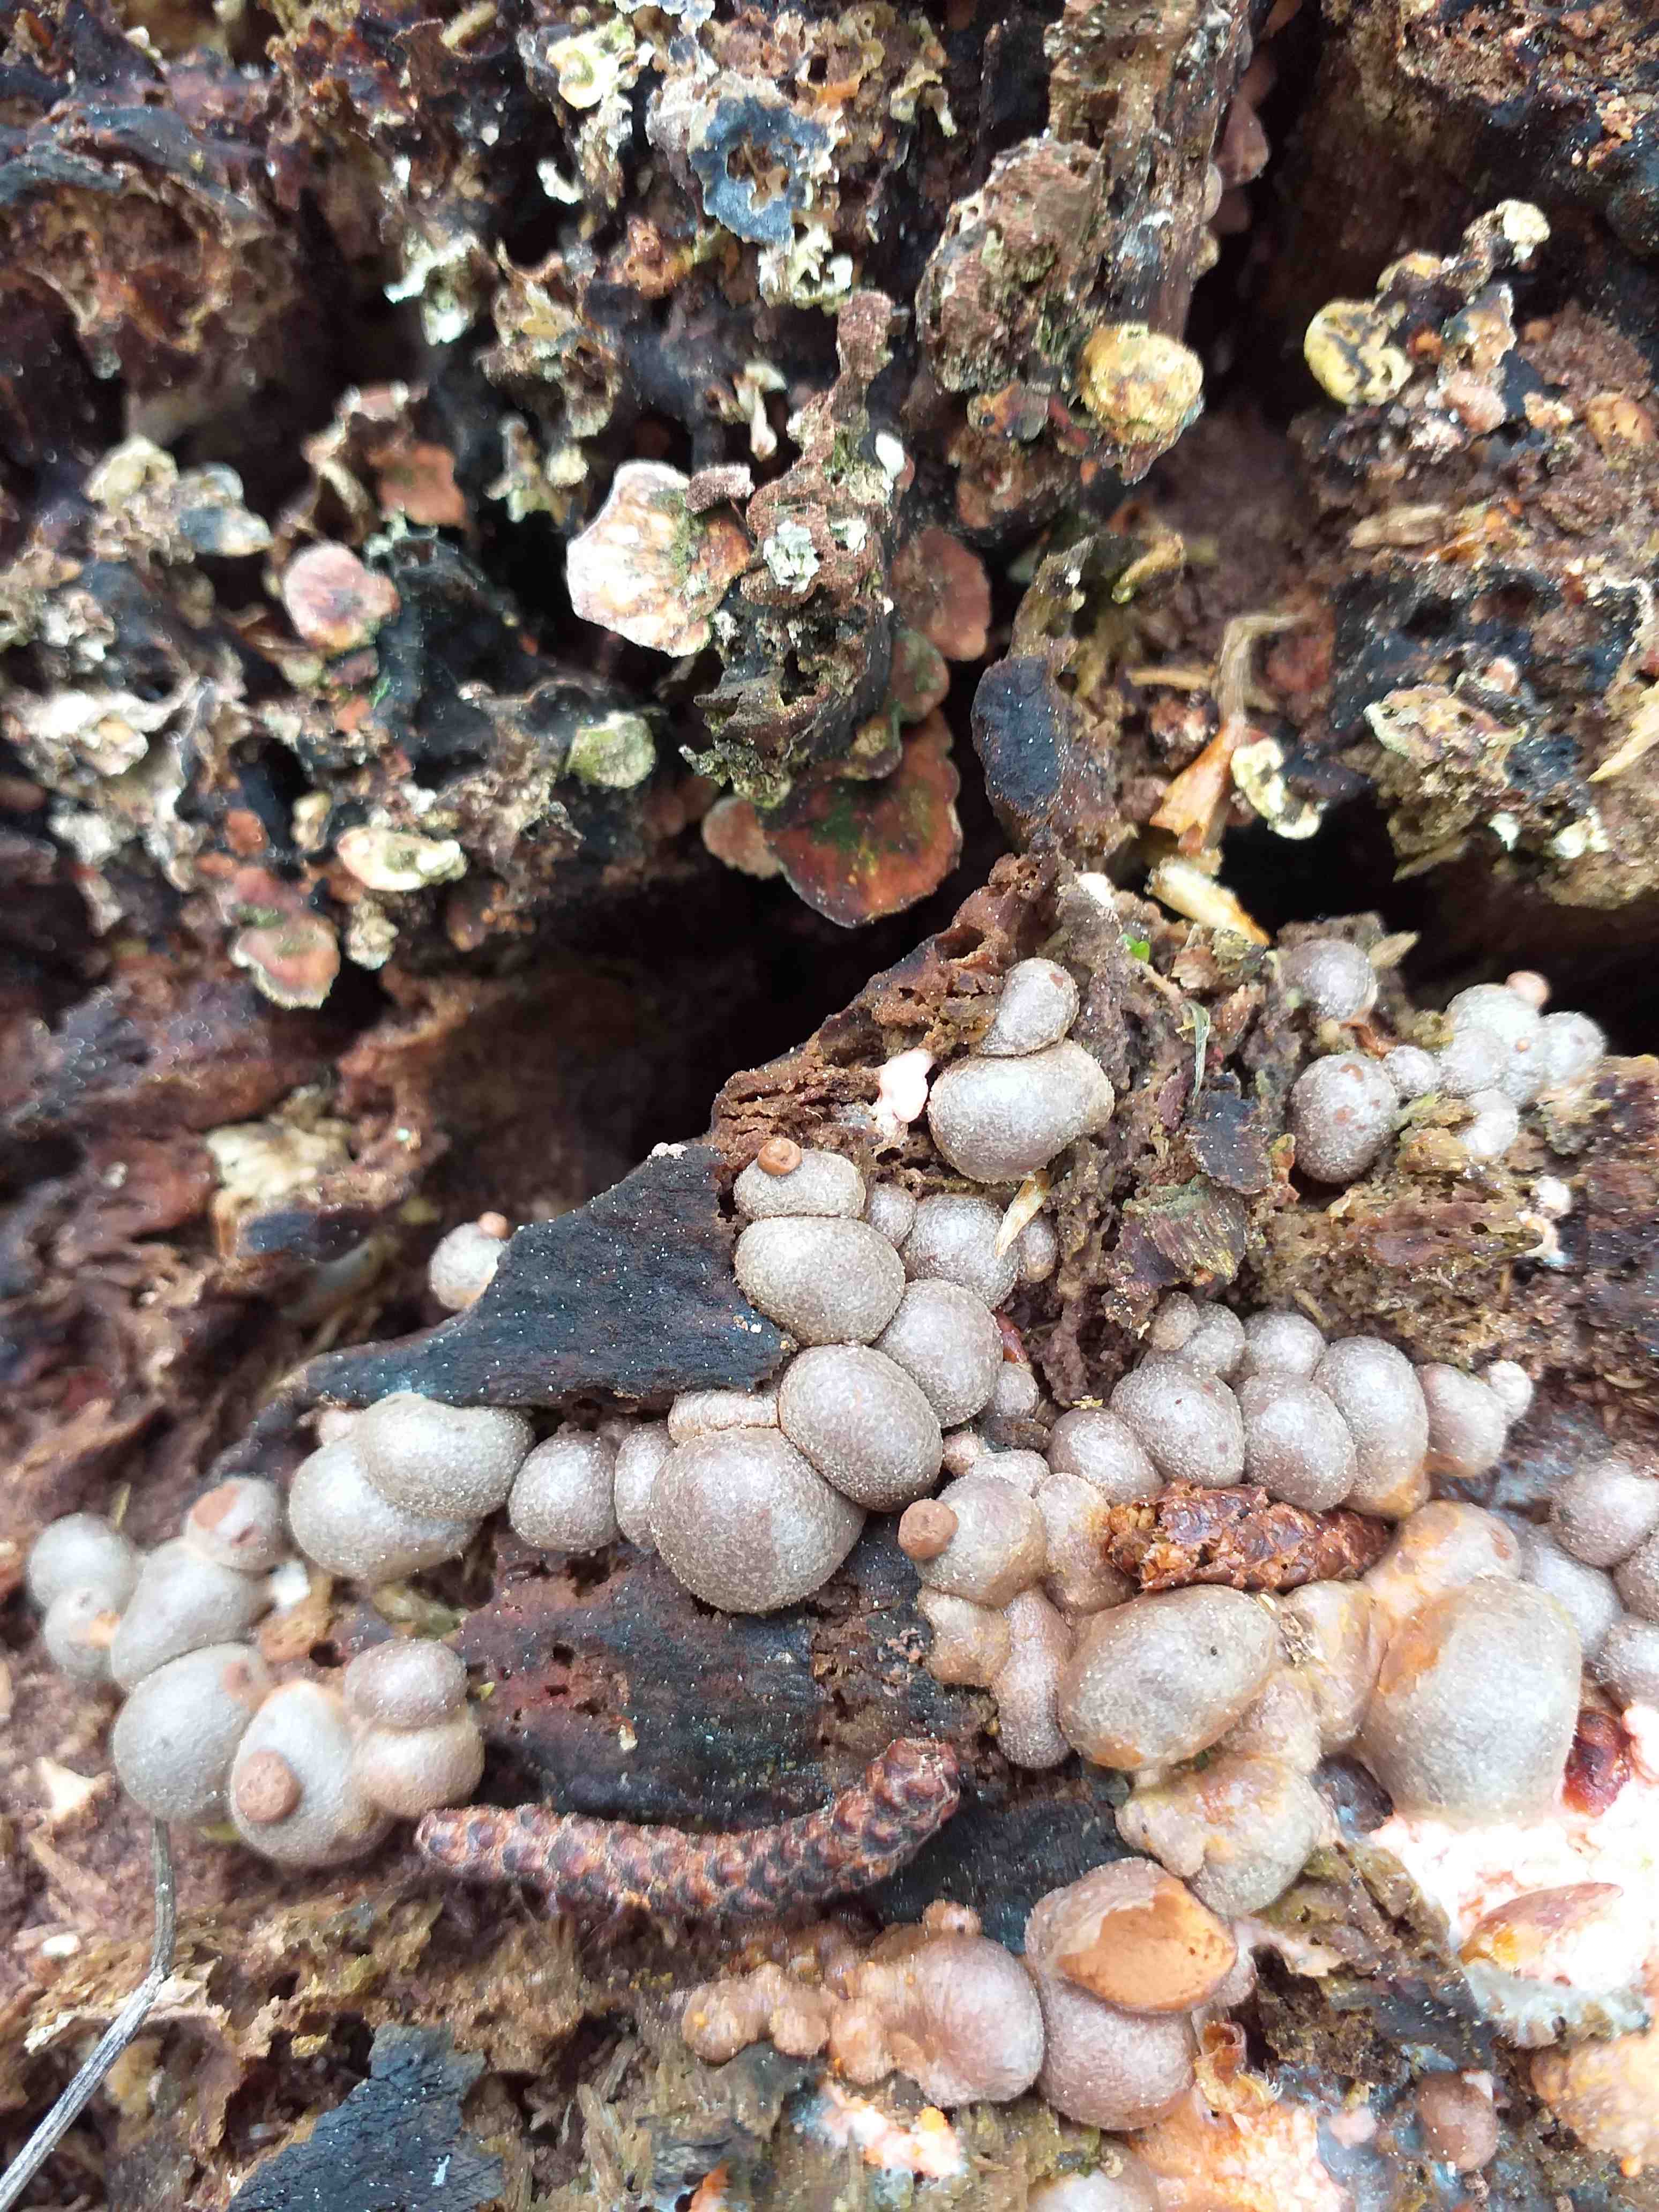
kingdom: Protozoa
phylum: Mycetozoa
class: Myxomycetes
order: Cribrariales
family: Tubiferaceae
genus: Lycogala
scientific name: Lycogala epidendrum
